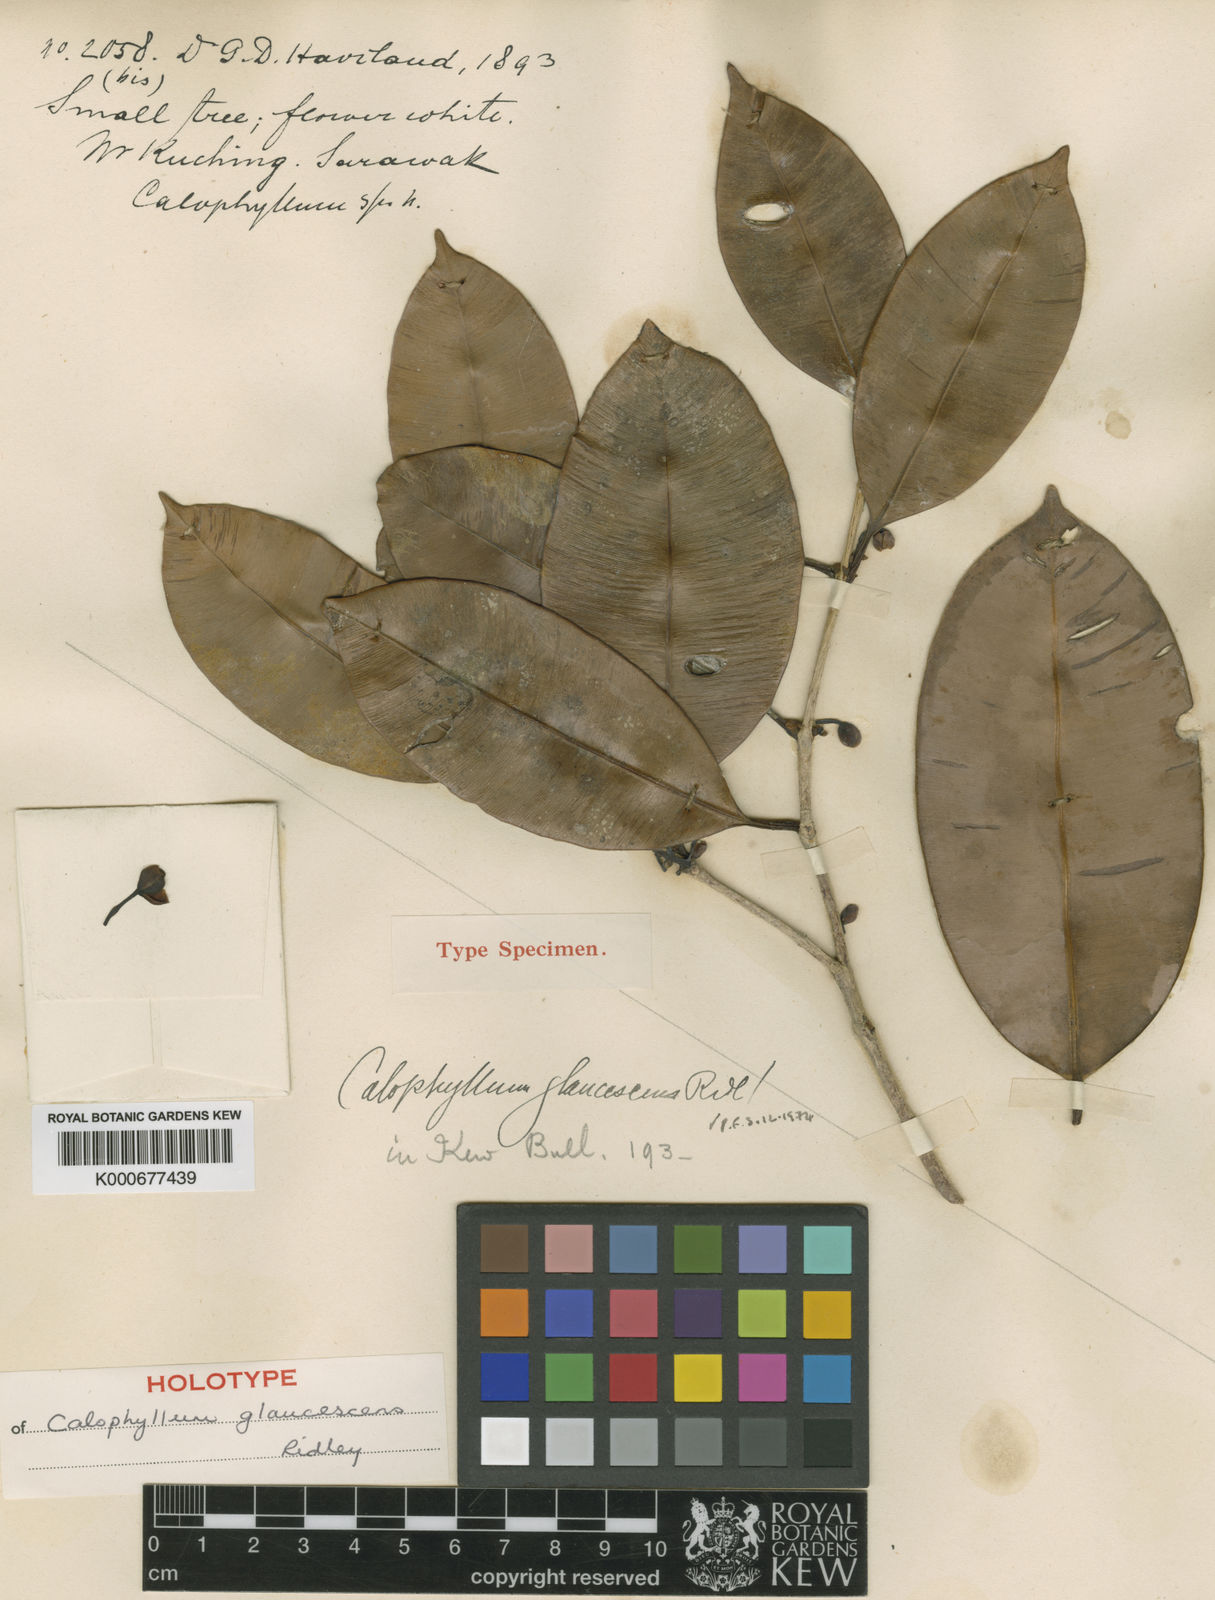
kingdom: Plantae
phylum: Tracheophyta
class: Magnoliopsida
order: Malpighiales
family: Calophyllaceae
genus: Calophyllum
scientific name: Calophyllum glaucescens
